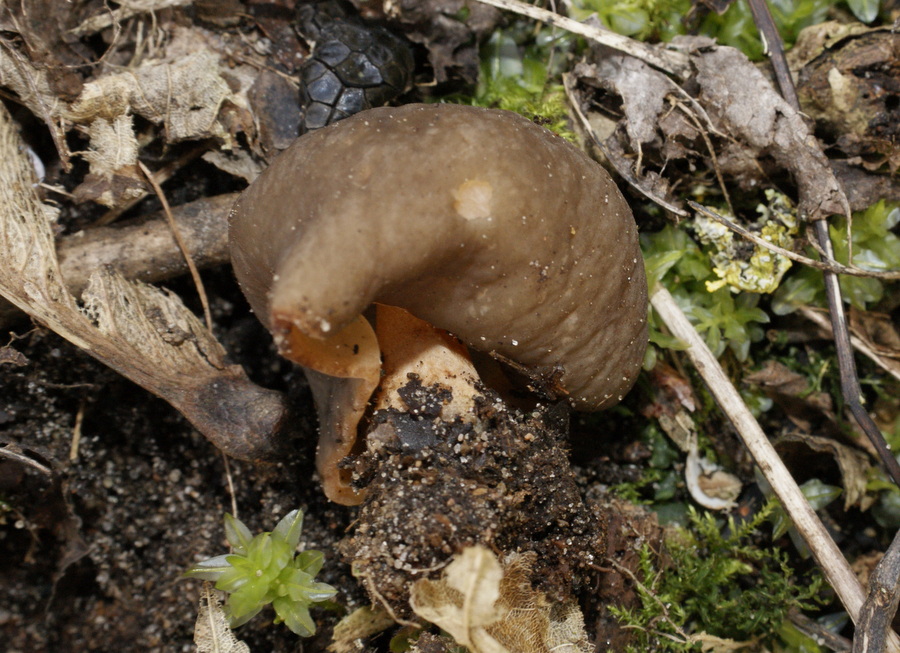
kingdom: Fungi
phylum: Ascomycota
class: Pezizomycetes
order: Pezizales
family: Morchellaceae
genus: Verpa
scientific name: Verpa conica
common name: glat klokkemorkel
